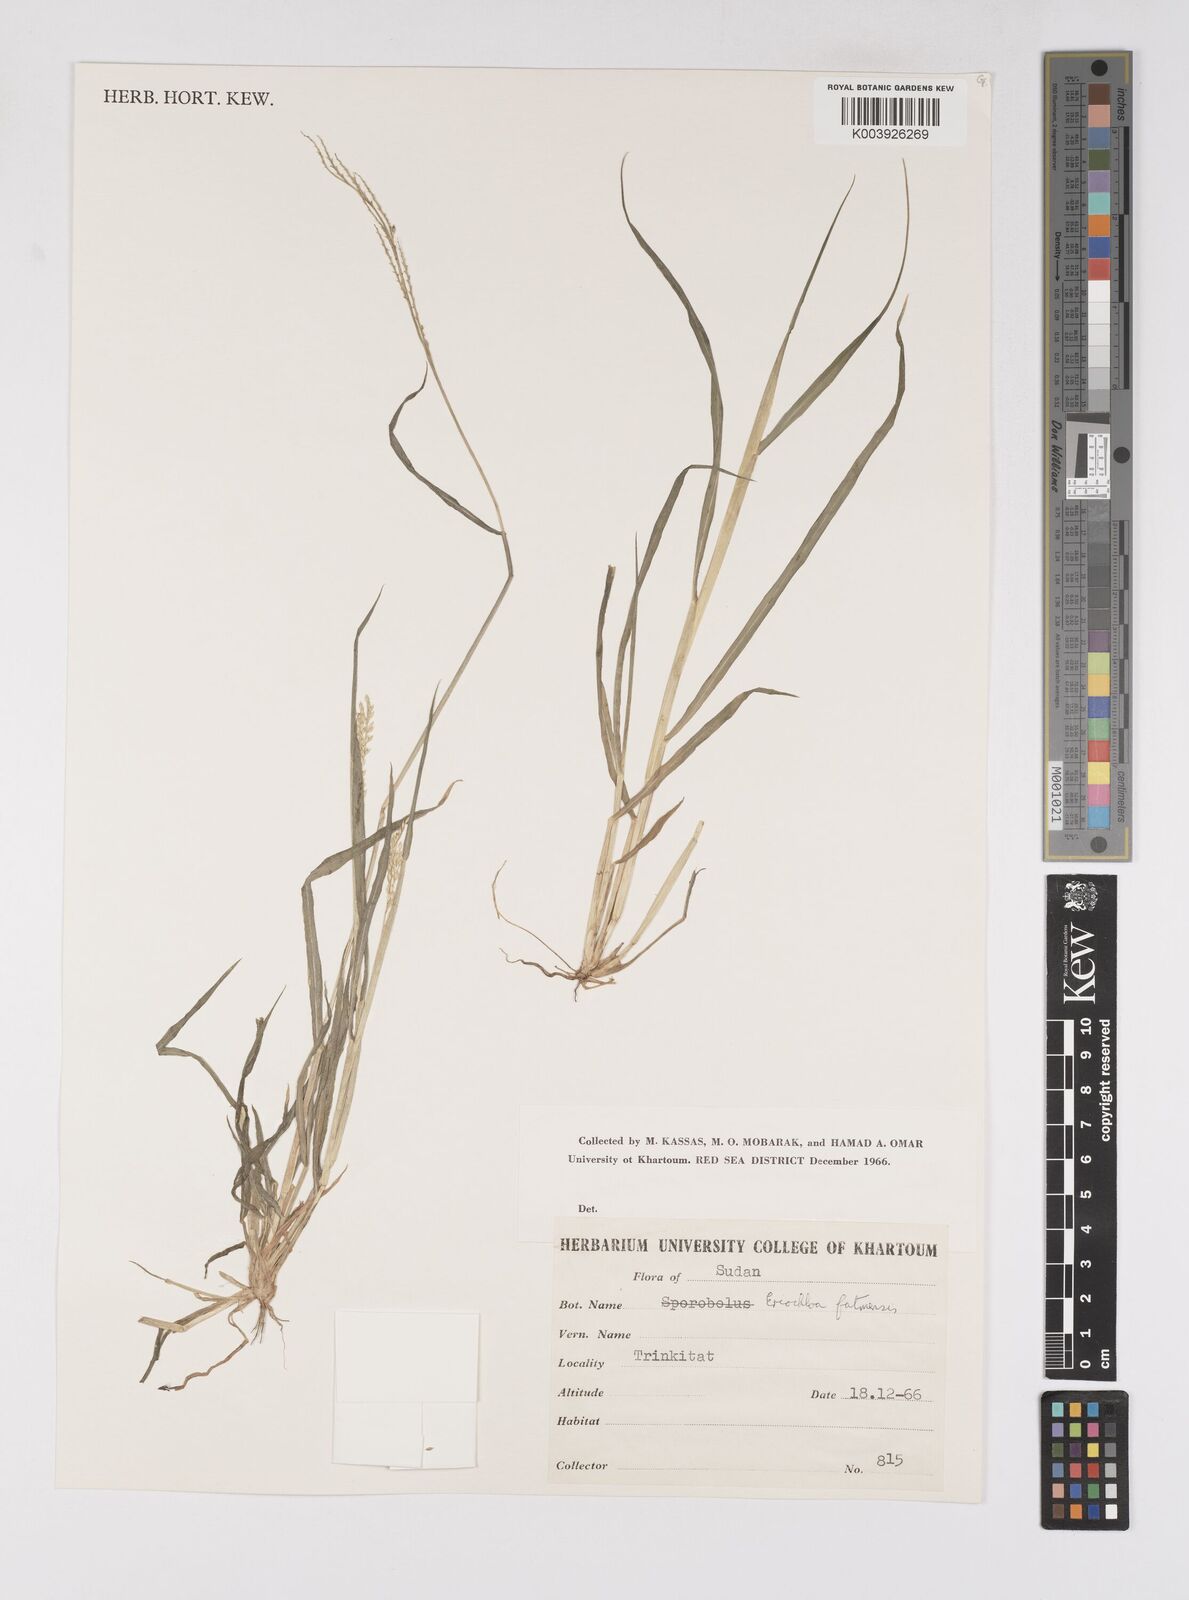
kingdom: Plantae
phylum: Tracheophyta
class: Liliopsida
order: Poales
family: Poaceae
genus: Eriochloa
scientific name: Eriochloa barbatus
